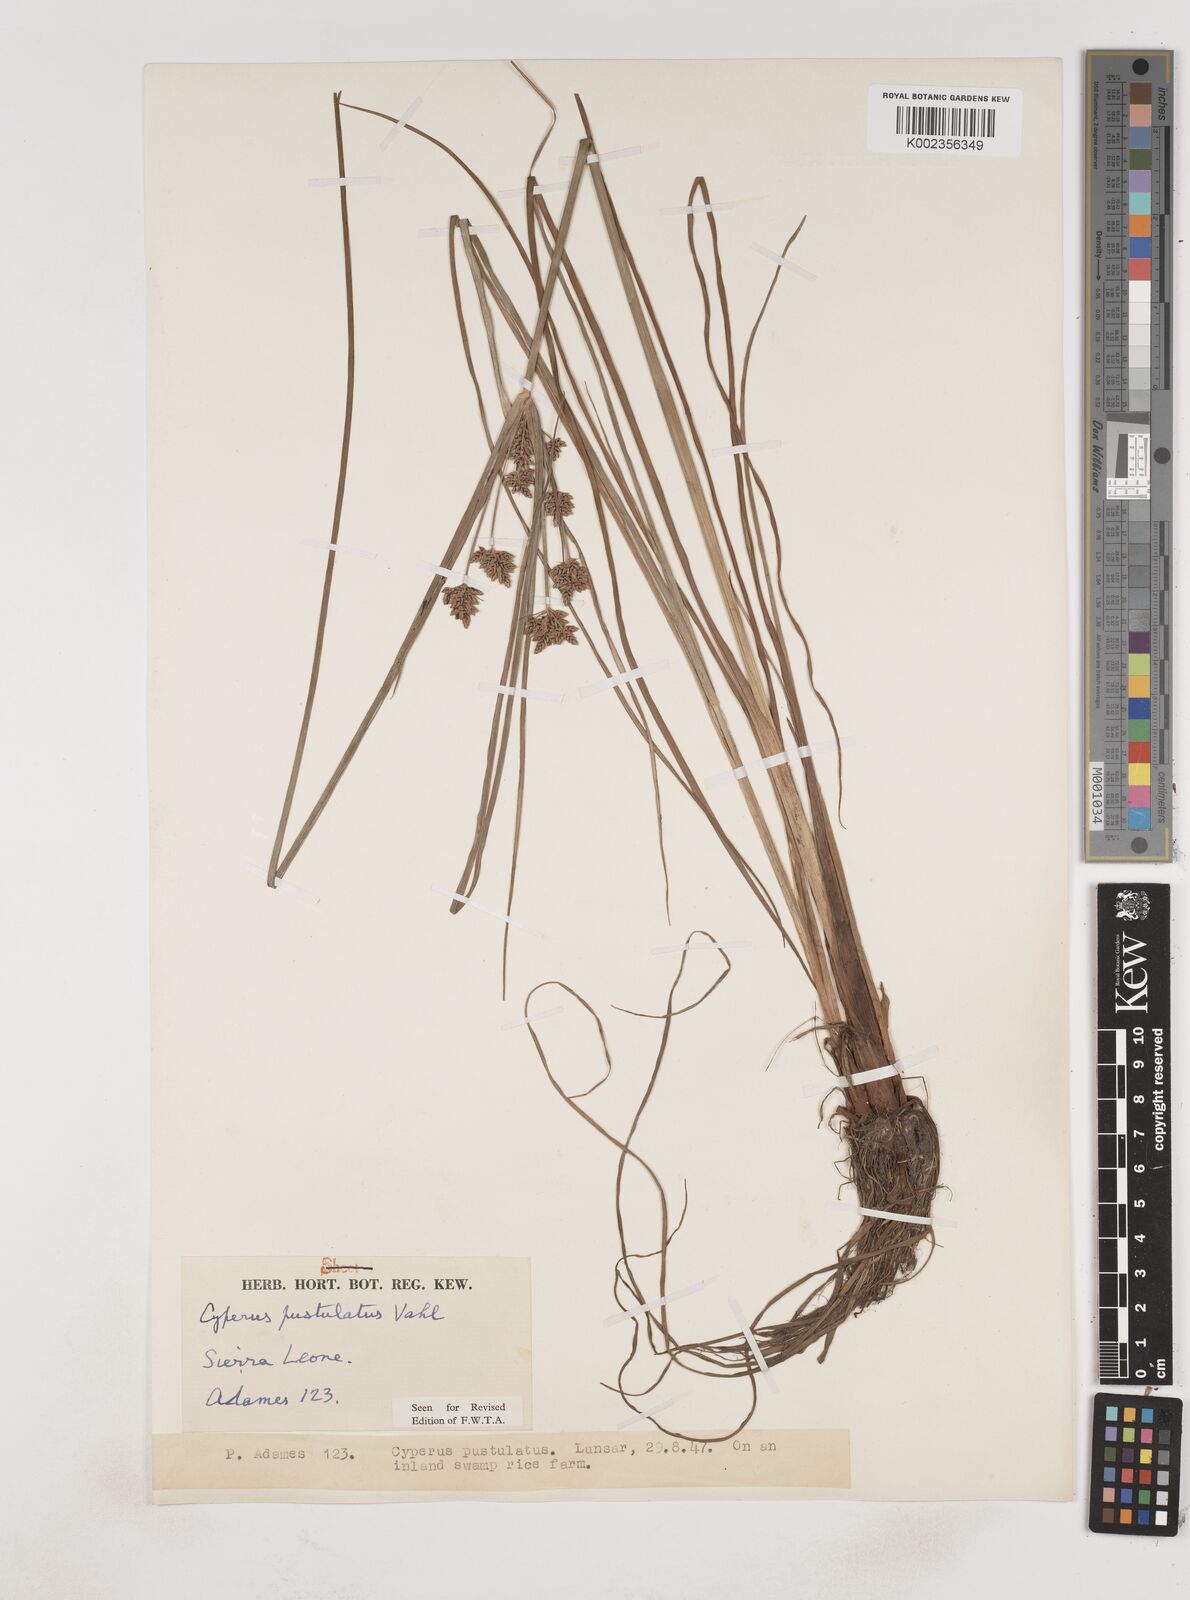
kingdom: Plantae
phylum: Tracheophyta
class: Liliopsida
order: Poales
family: Cyperaceae
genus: Cyperus
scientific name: Cyperus pustulatus
